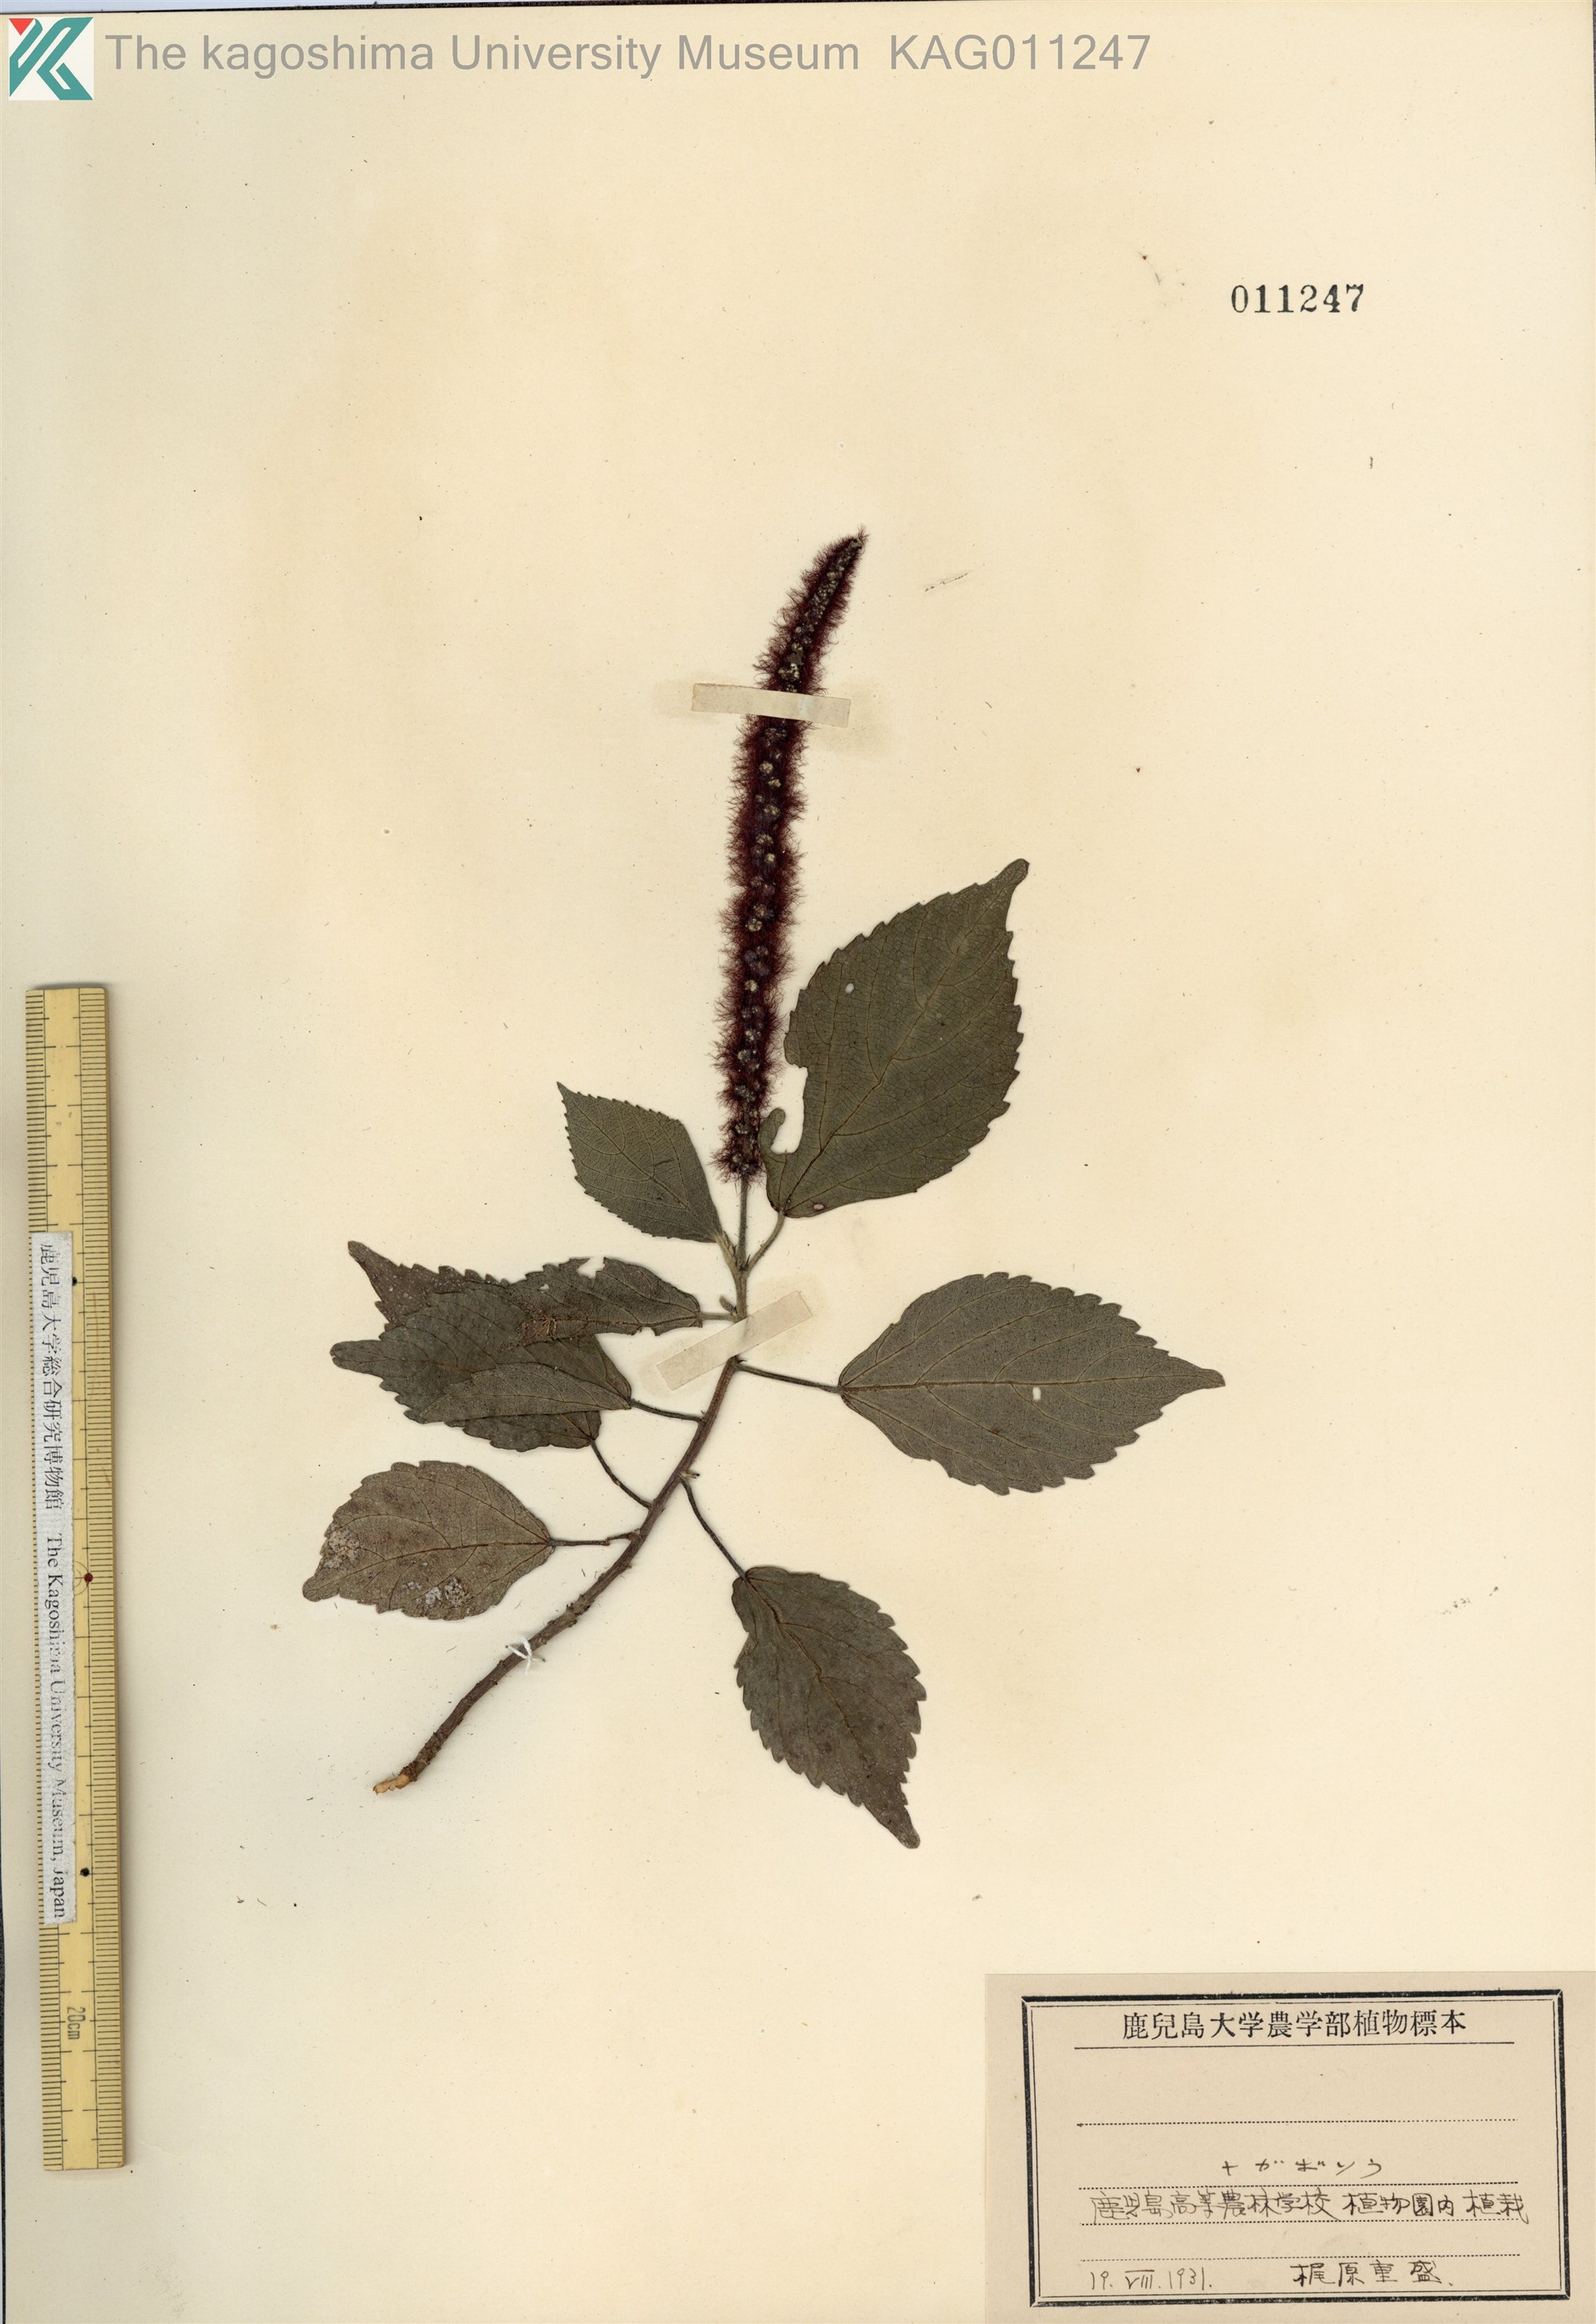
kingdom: Plantae
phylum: Tracheophyta
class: Magnoliopsida
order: Malpighiales
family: Euphorbiaceae
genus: Acalypha
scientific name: Acalypha hispida
